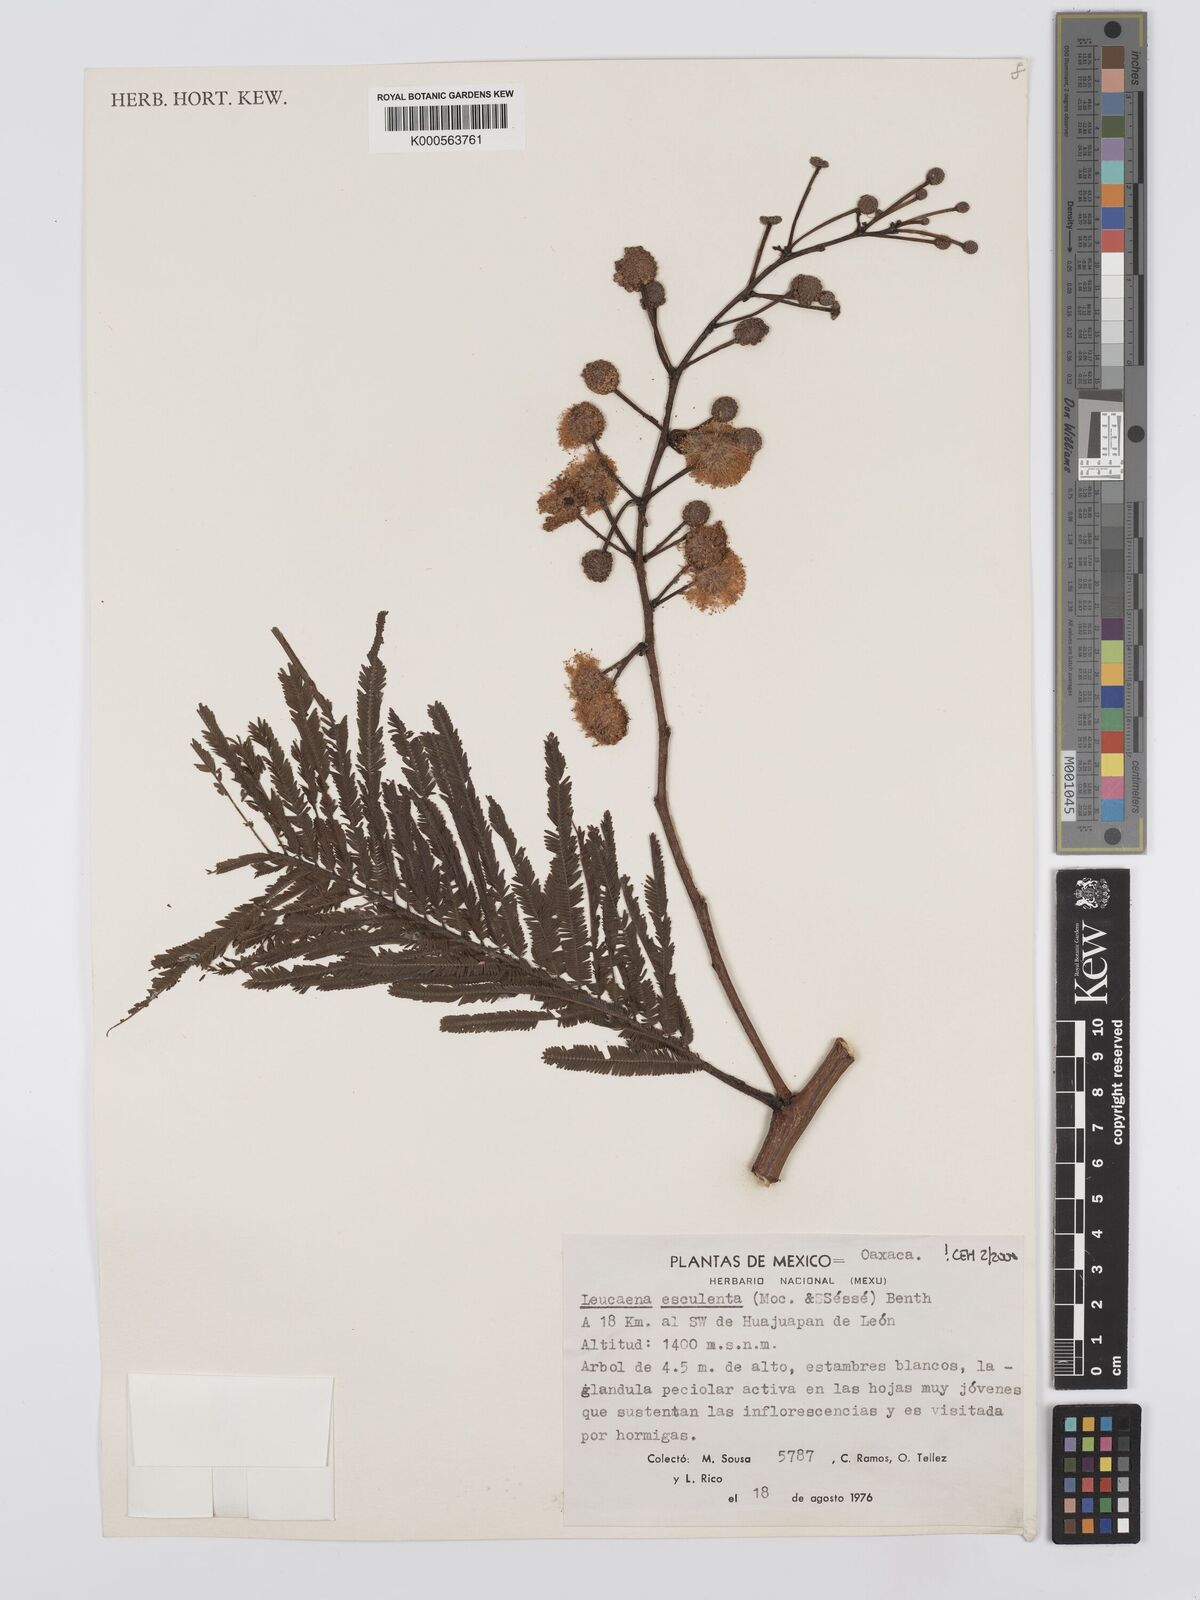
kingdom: Plantae
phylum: Tracheophyta
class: Magnoliopsida
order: Fabales
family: Fabaceae
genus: Leucaena
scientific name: Leucaena
